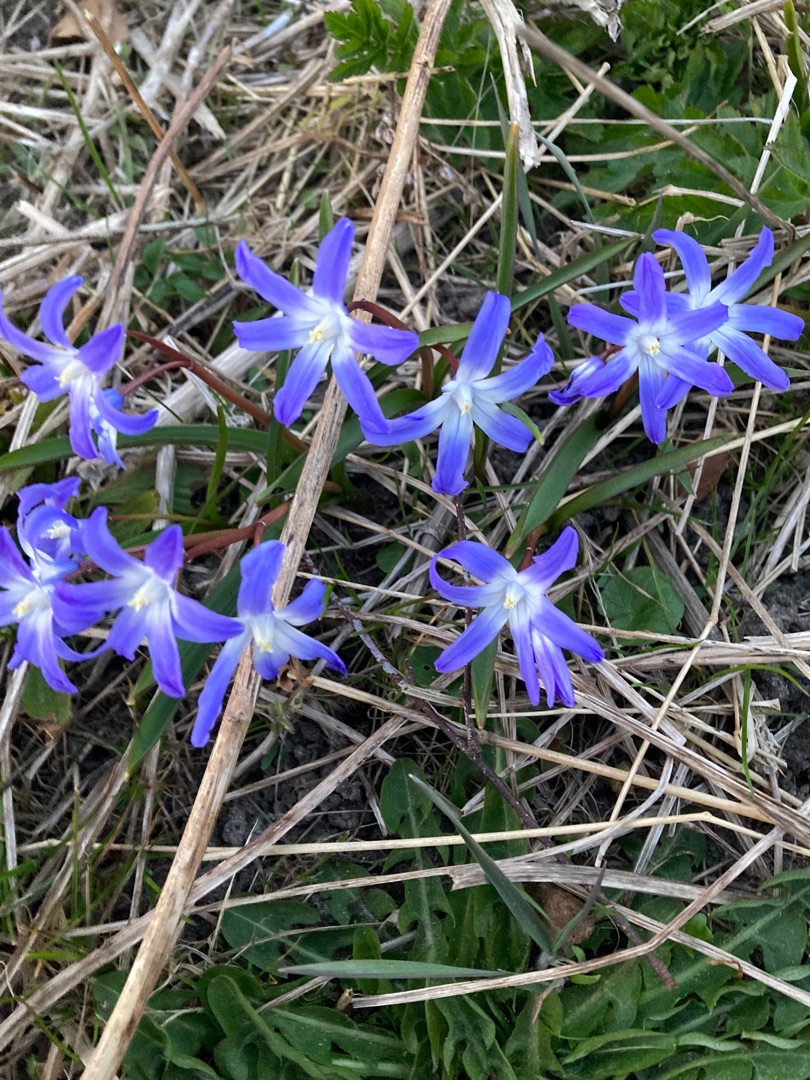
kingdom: Plantae
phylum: Tracheophyta
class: Liliopsida
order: Asparagales
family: Asparagaceae
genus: Scilla
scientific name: Scilla forbesii
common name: Almindelig snepryd
